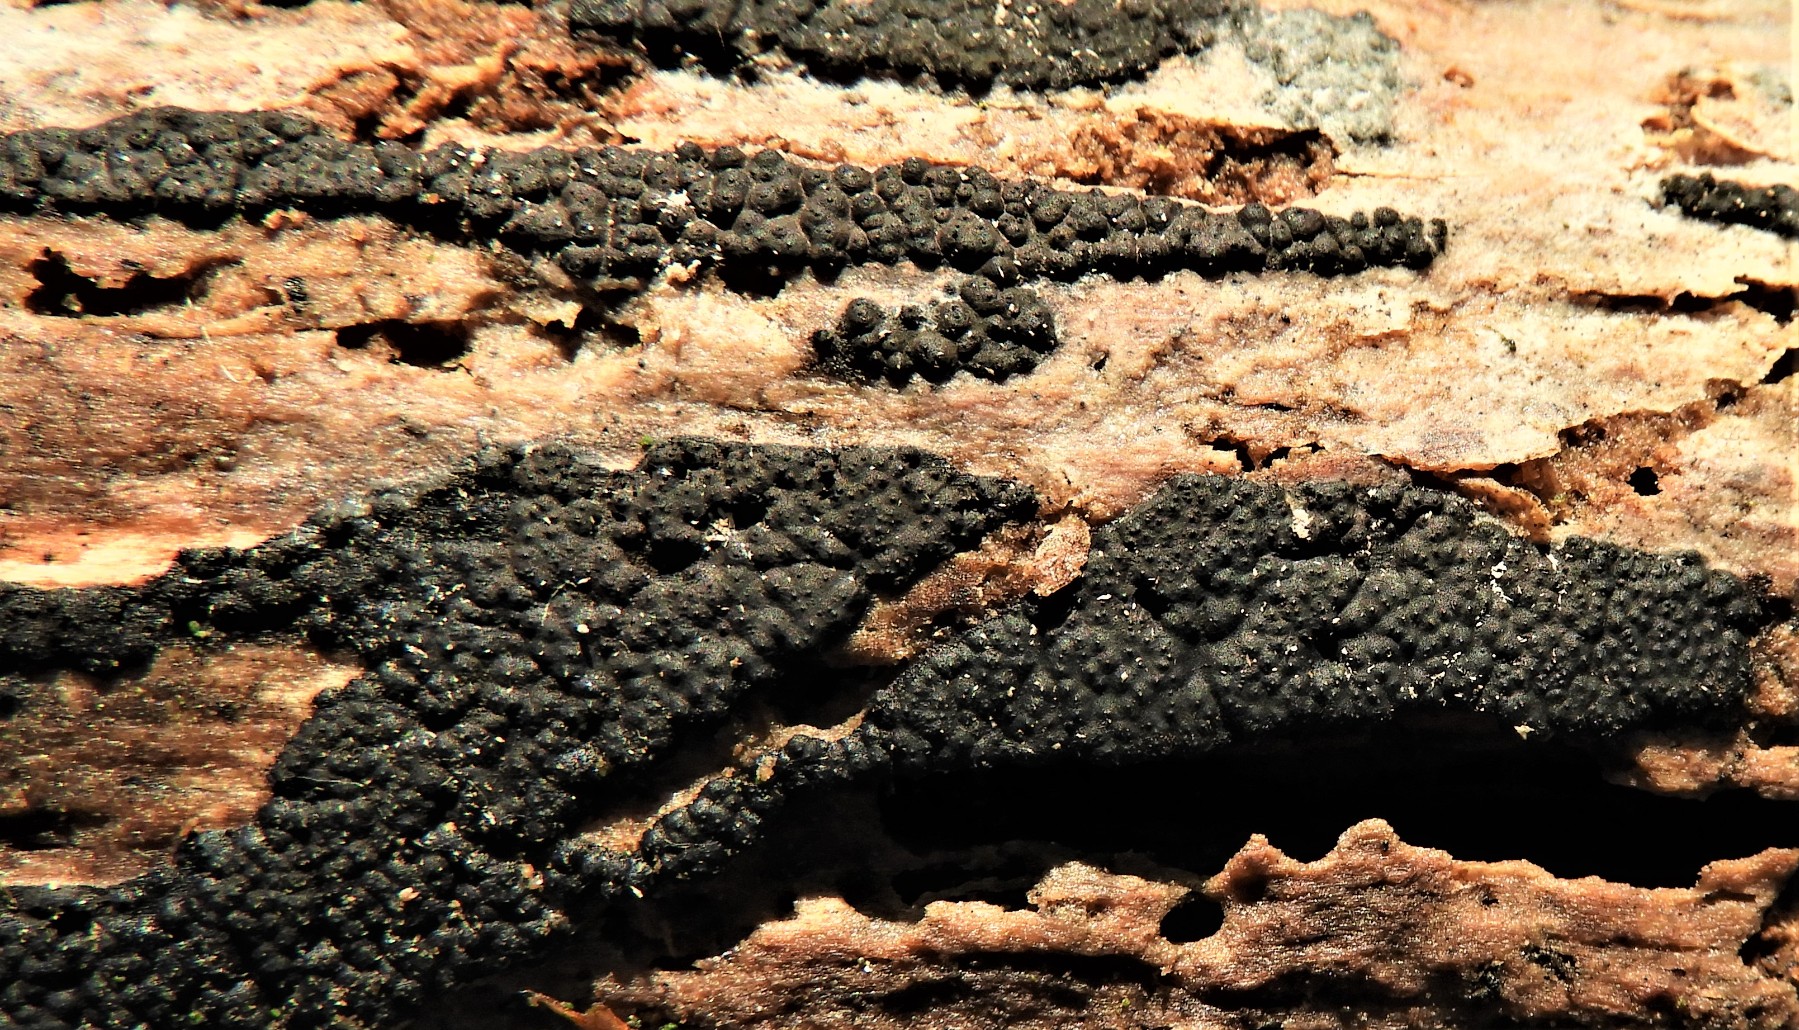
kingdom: Fungi
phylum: Ascomycota
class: Sordariomycetes
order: Xylariales
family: Xylariaceae
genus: Nemania
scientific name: Nemania
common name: kuldyne
